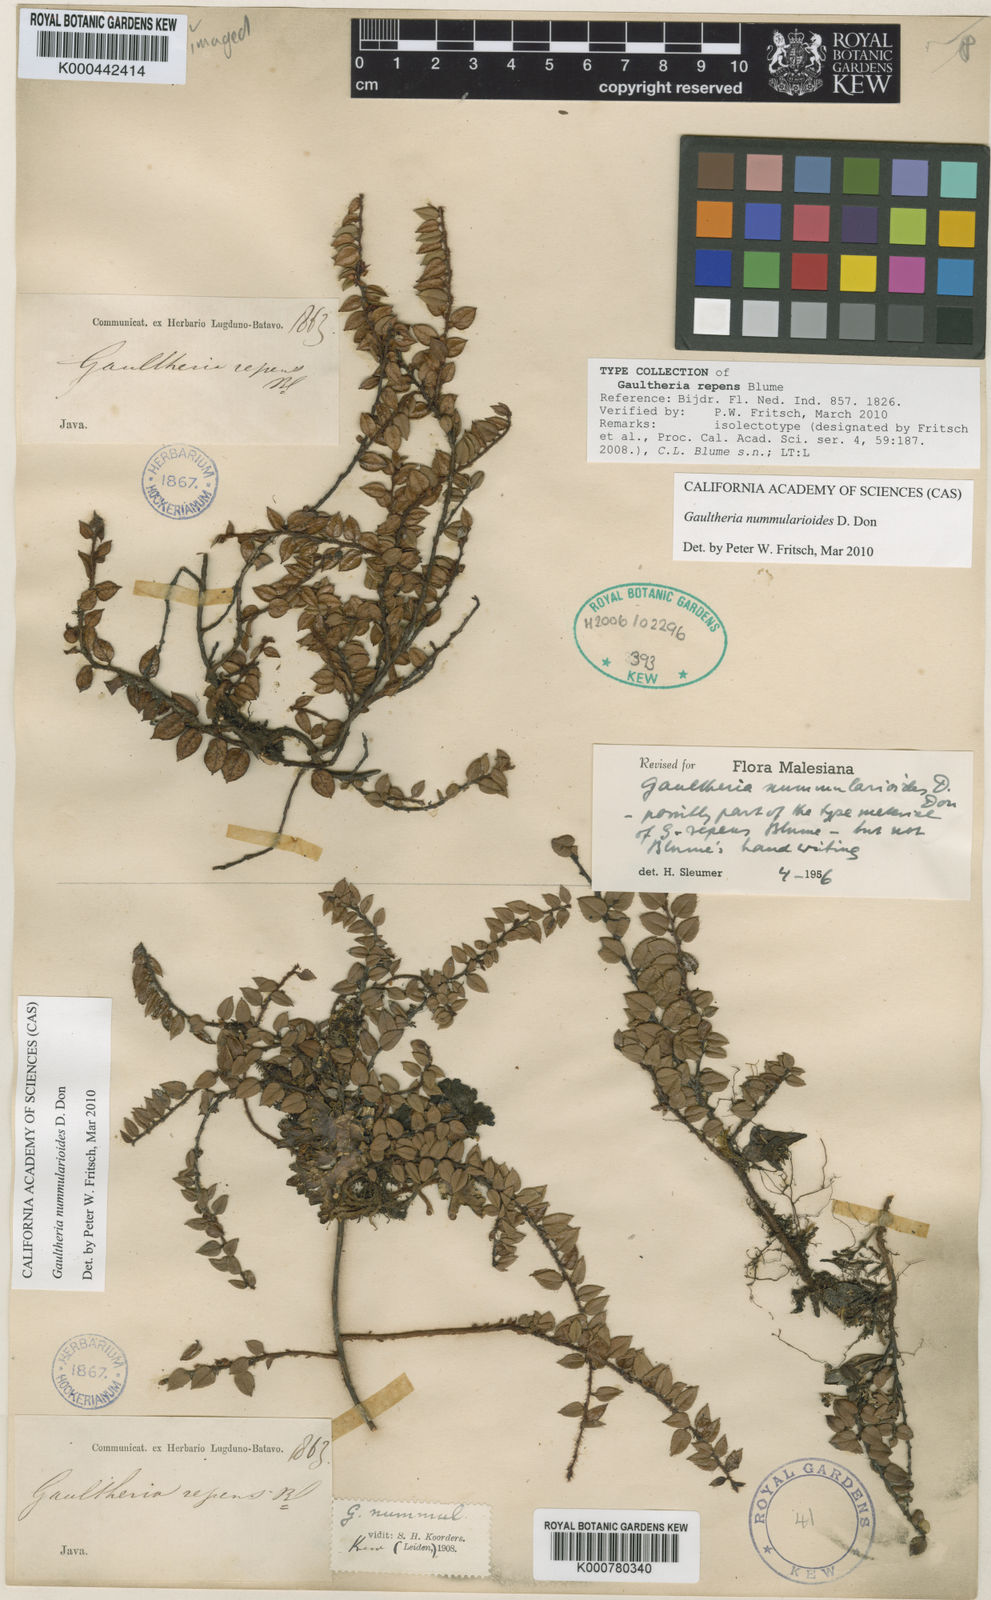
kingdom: Plantae
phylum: Tracheophyta
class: Magnoliopsida
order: Ericales
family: Ericaceae
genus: Gaultheria
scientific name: Gaultheria nummularioides
